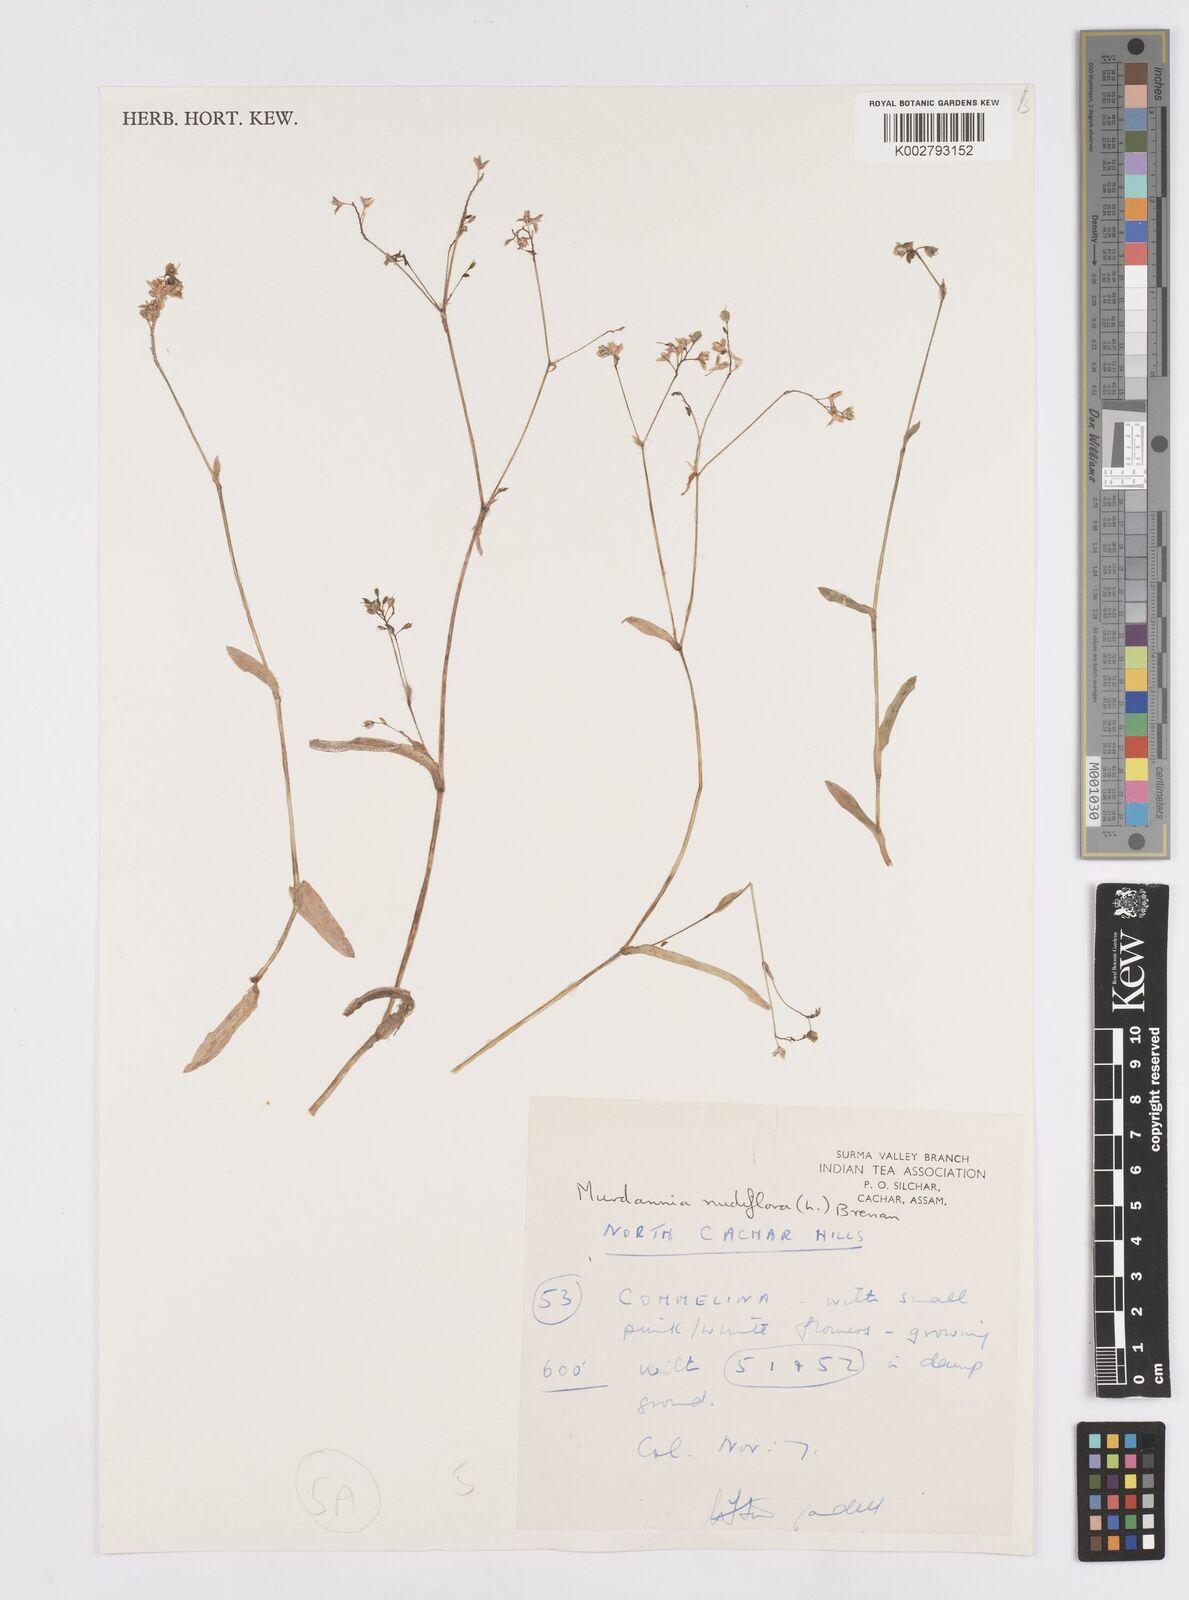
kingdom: Plantae
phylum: Tracheophyta
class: Liliopsida
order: Commelinales
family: Commelinaceae
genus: Murdannia
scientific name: Murdannia
